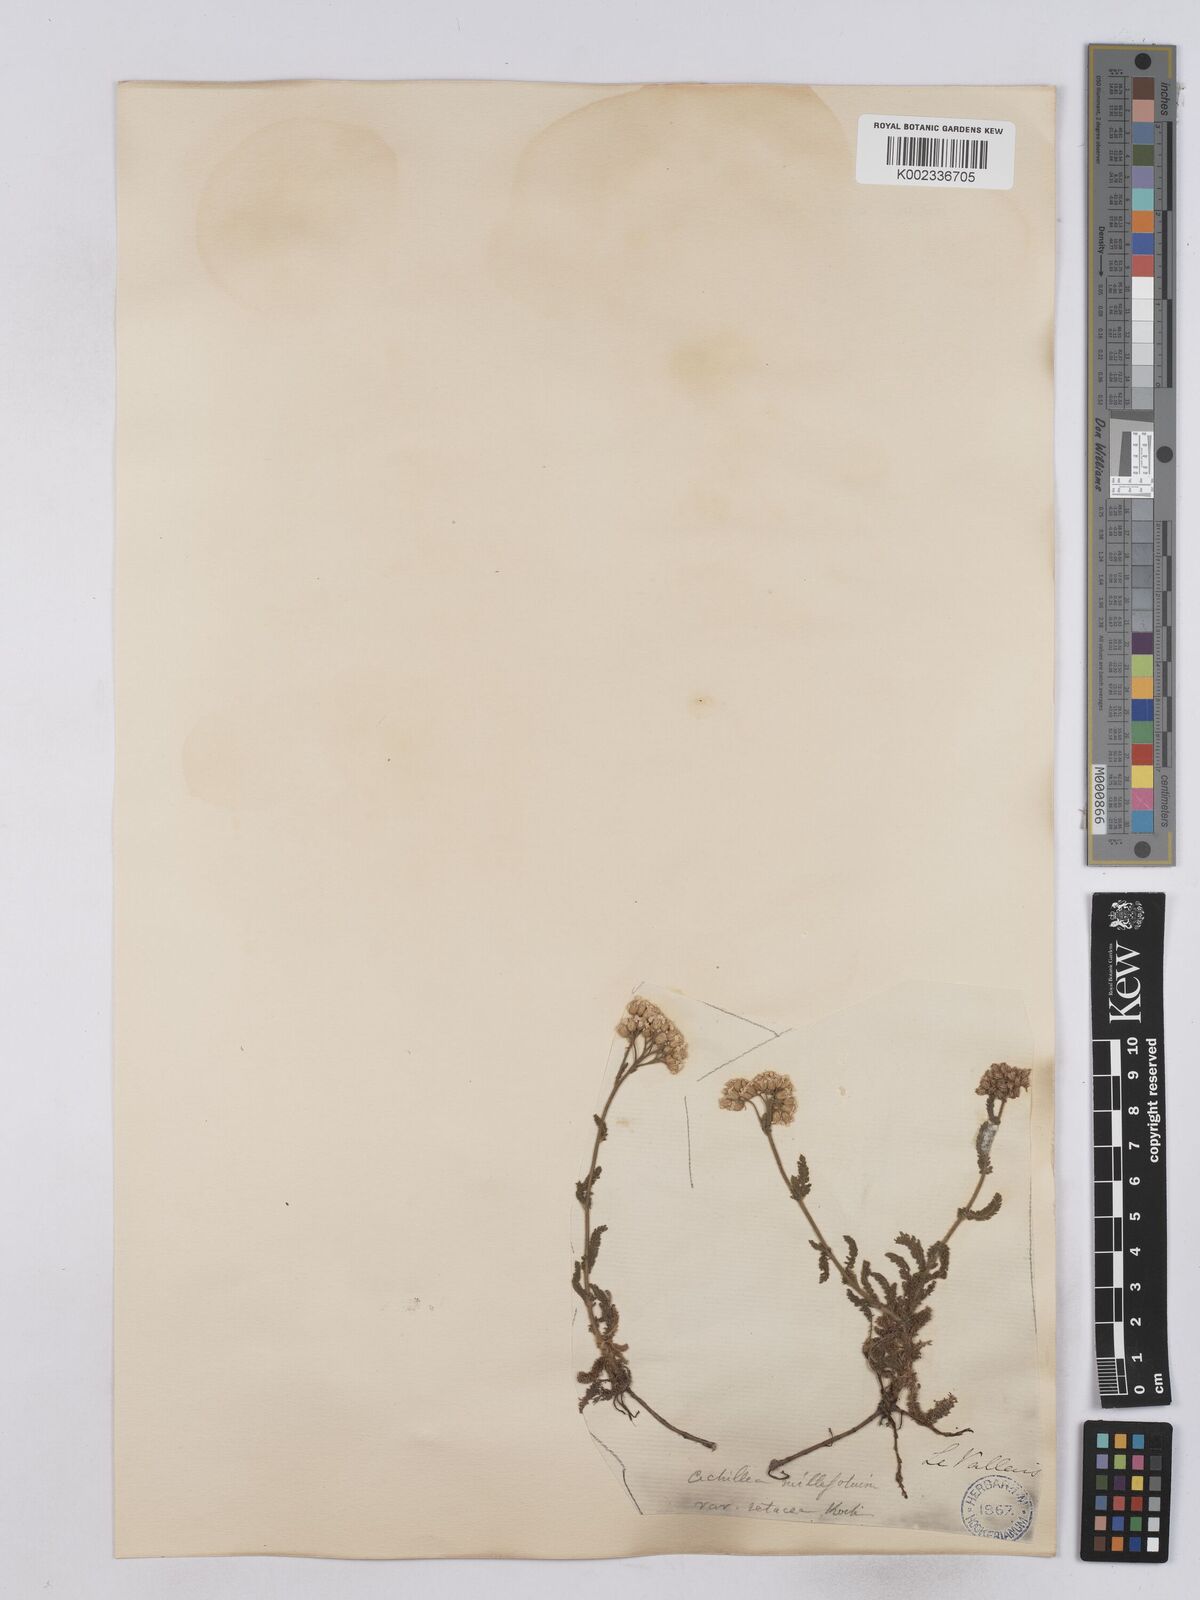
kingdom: Plantae
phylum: Tracheophyta
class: Magnoliopsida
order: Asterales
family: Asteraceae
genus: Achillea
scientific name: Achillea setacea
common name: Bristly yarrow
